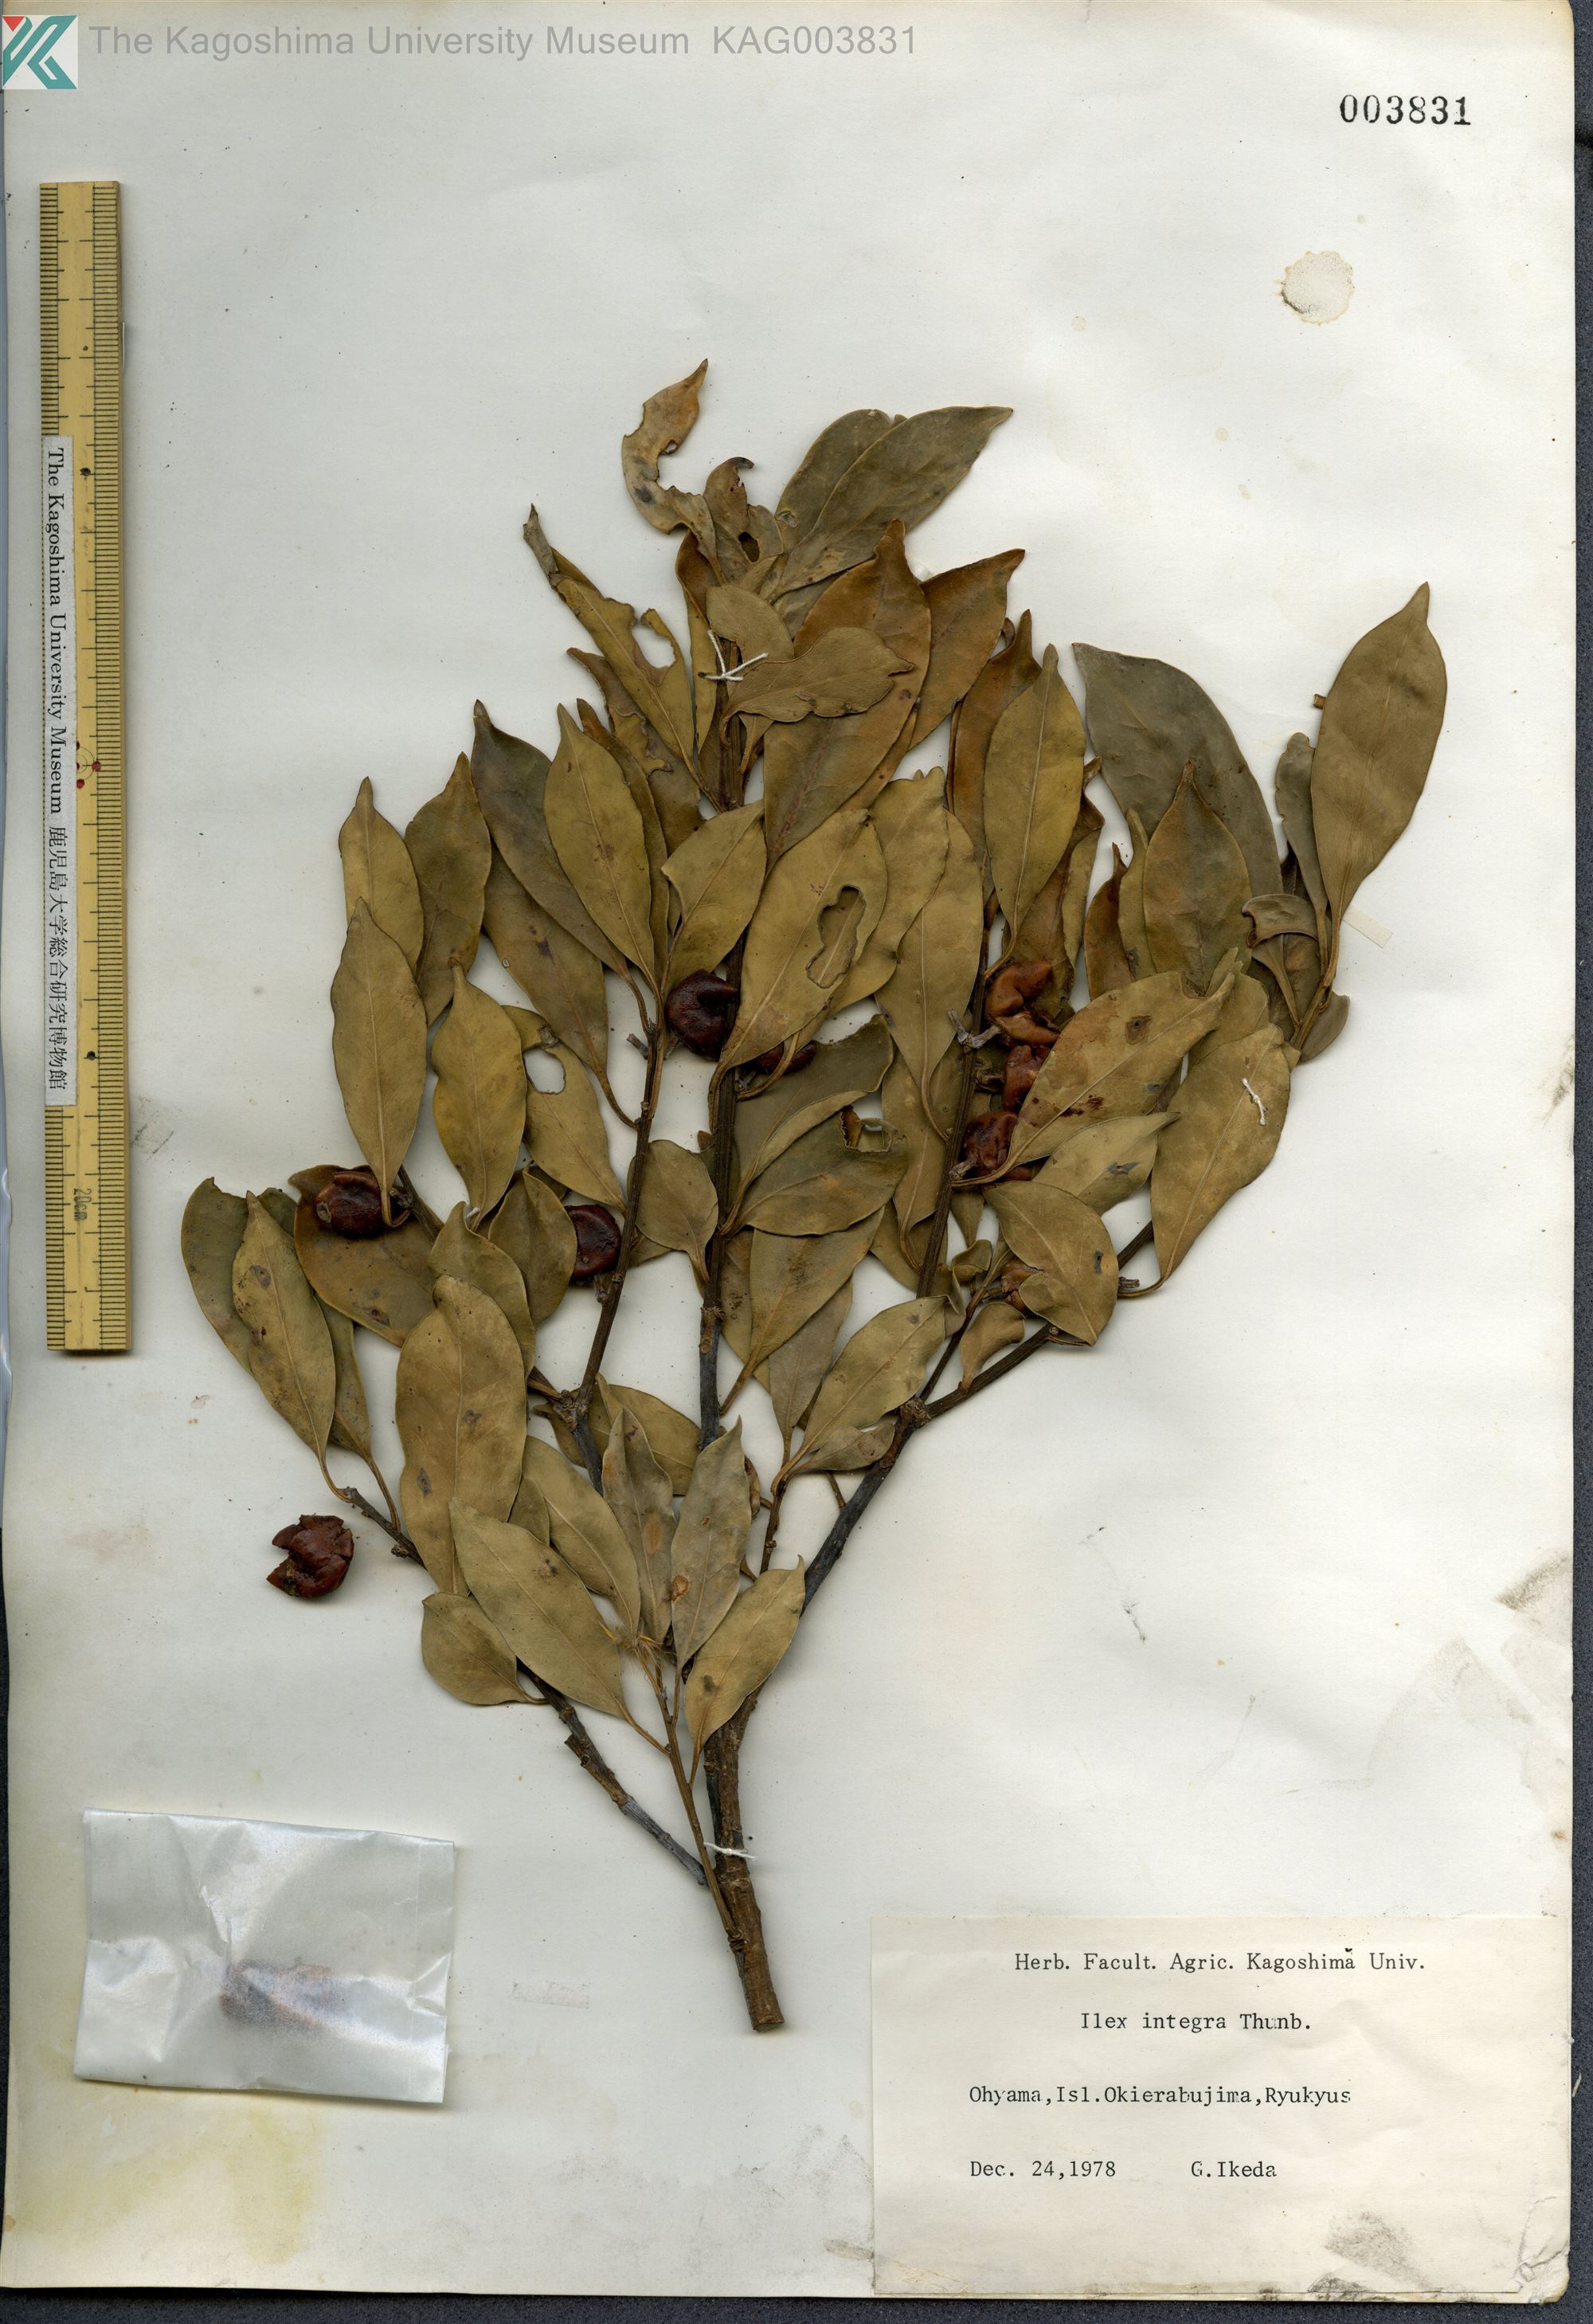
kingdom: Plantae
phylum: Tracheophyta
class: Magnoliopsida
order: Aquifoliales
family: Aquifoliaceae
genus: Ilex
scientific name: Ilex integra
